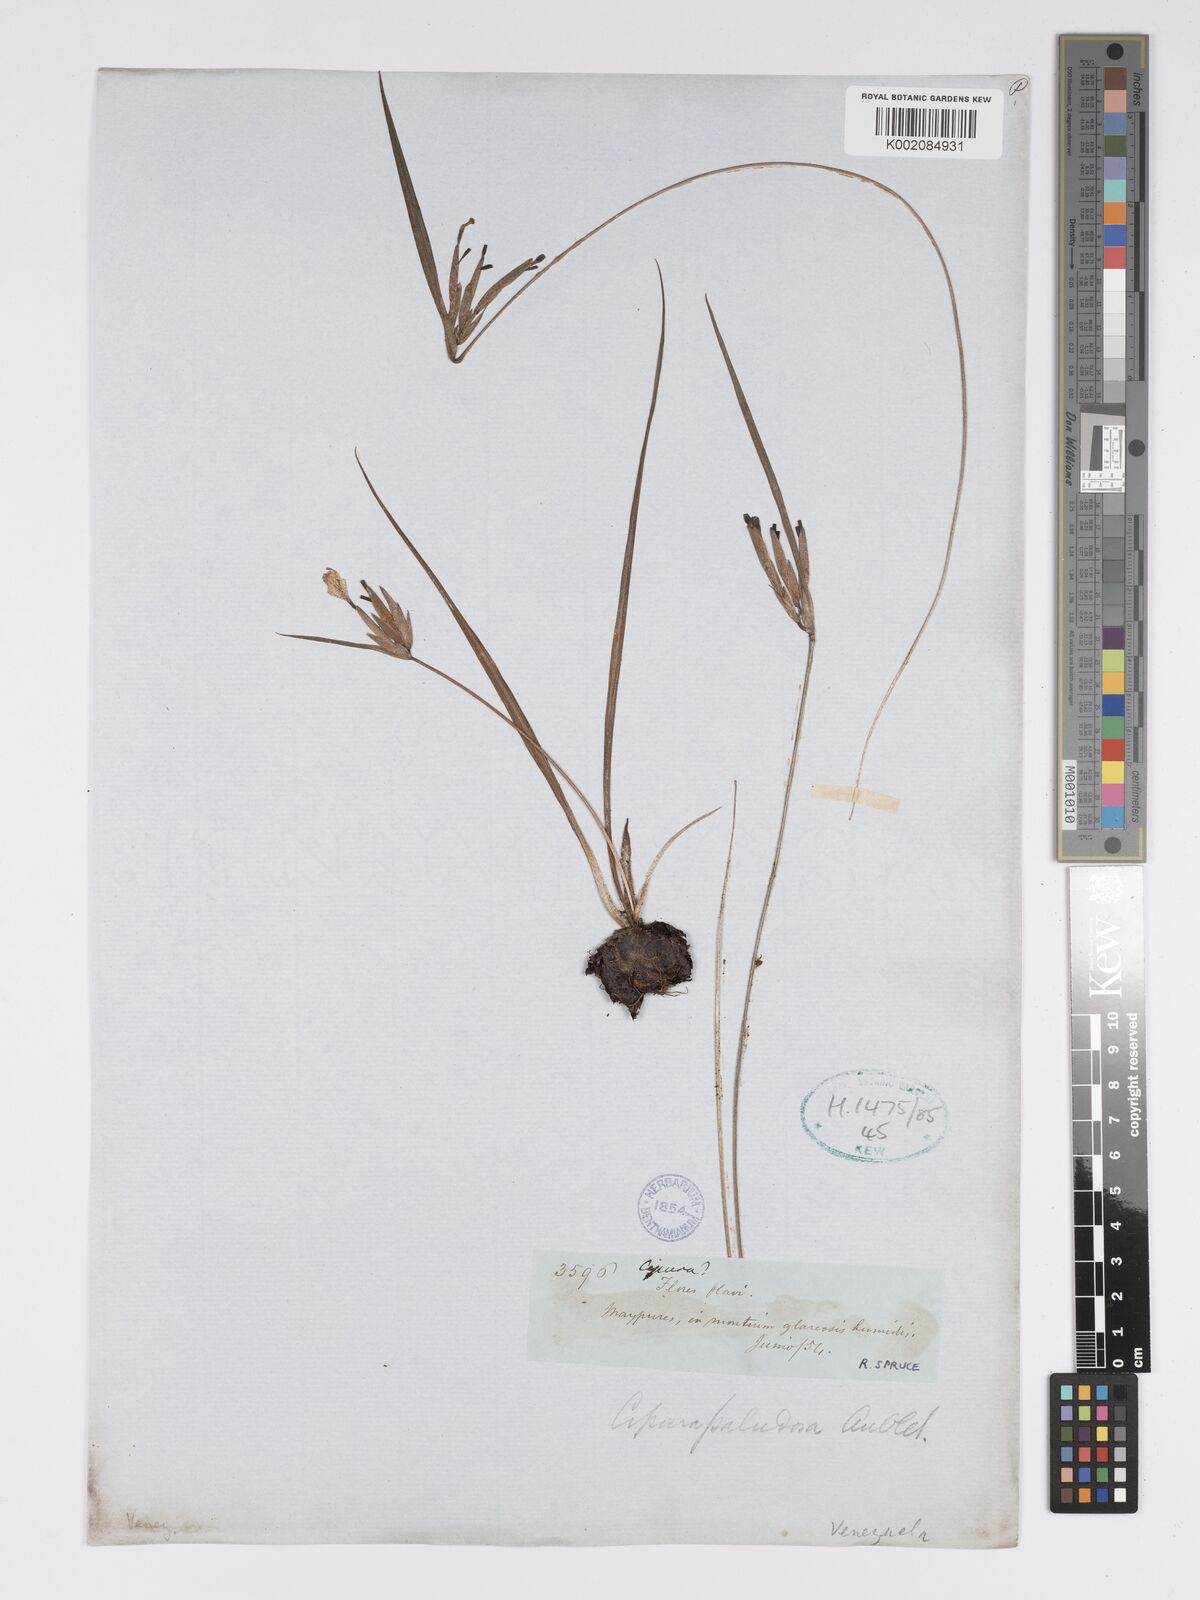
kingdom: Plantae
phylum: Tracheophyta
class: Liliopsida
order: Asparagales
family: Iridaceae
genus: Cipura
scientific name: Cipura paludosa
